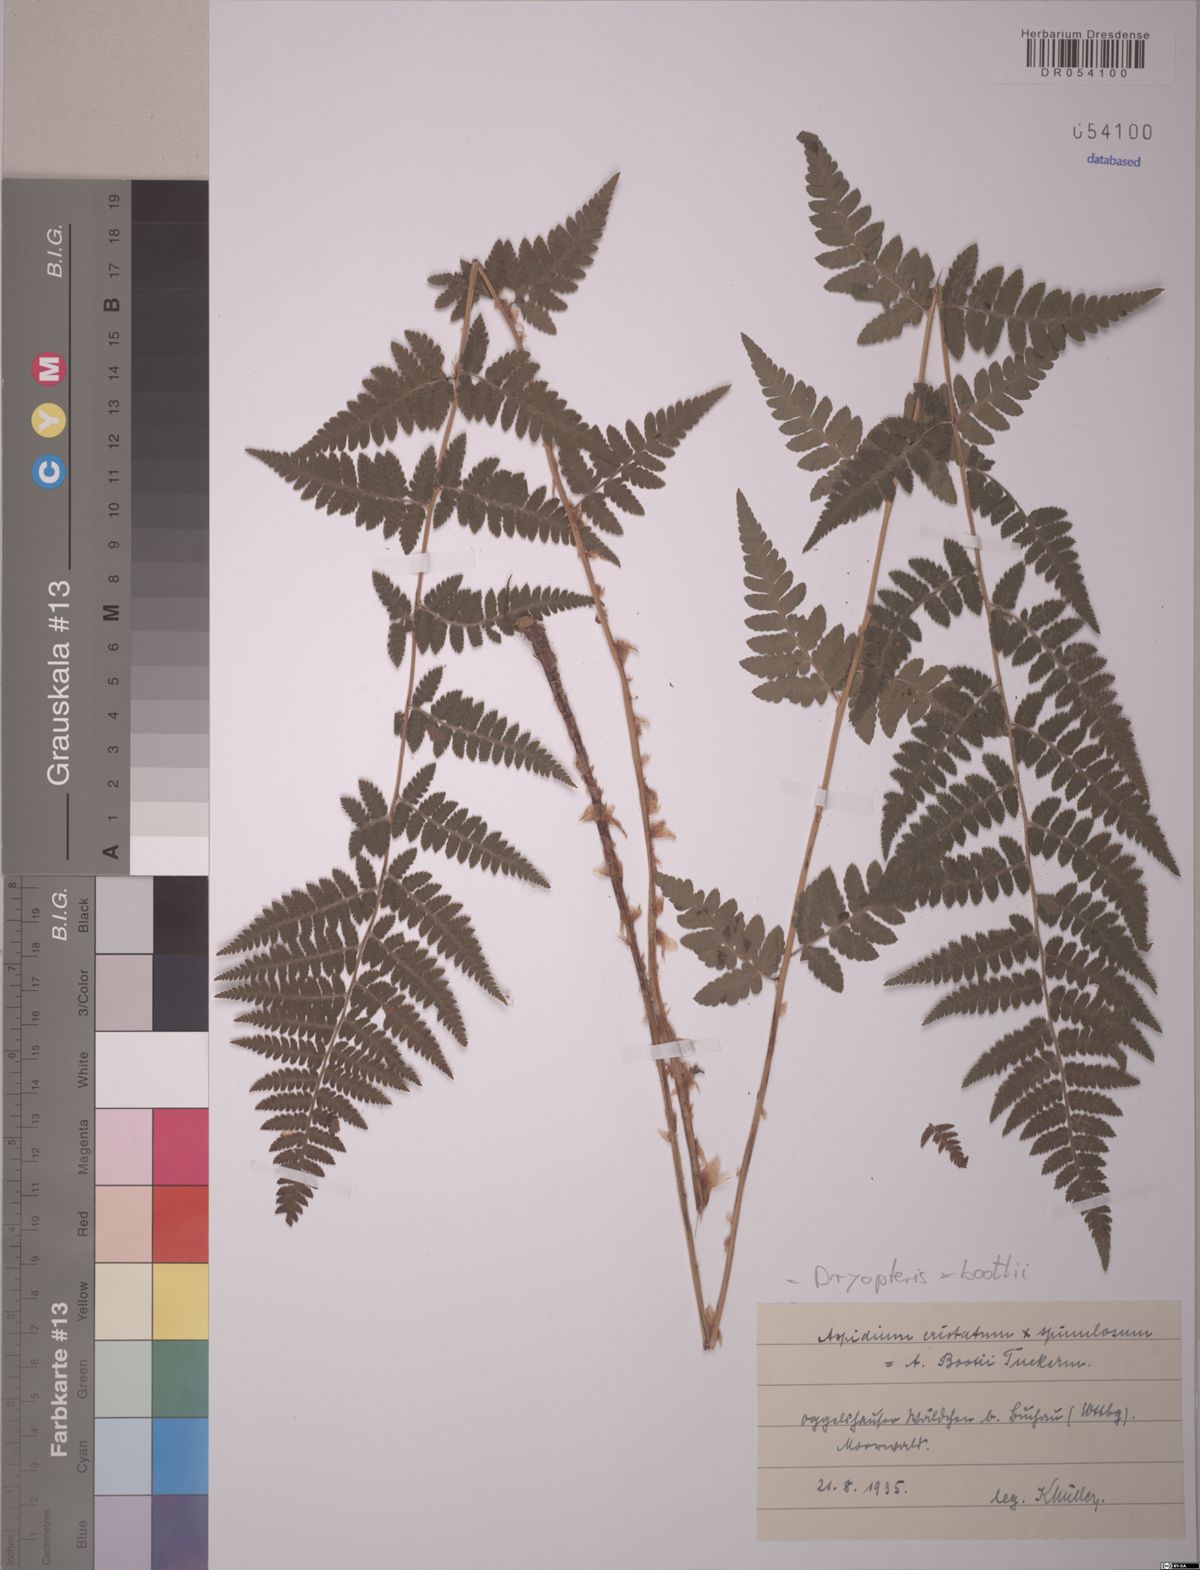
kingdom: Plantae
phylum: Tracheophyta
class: Polypodiopsida
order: Polypodiales
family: Dryopteridaceae
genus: Dryopteris
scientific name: Dryopteris boottii
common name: Boott's fern
